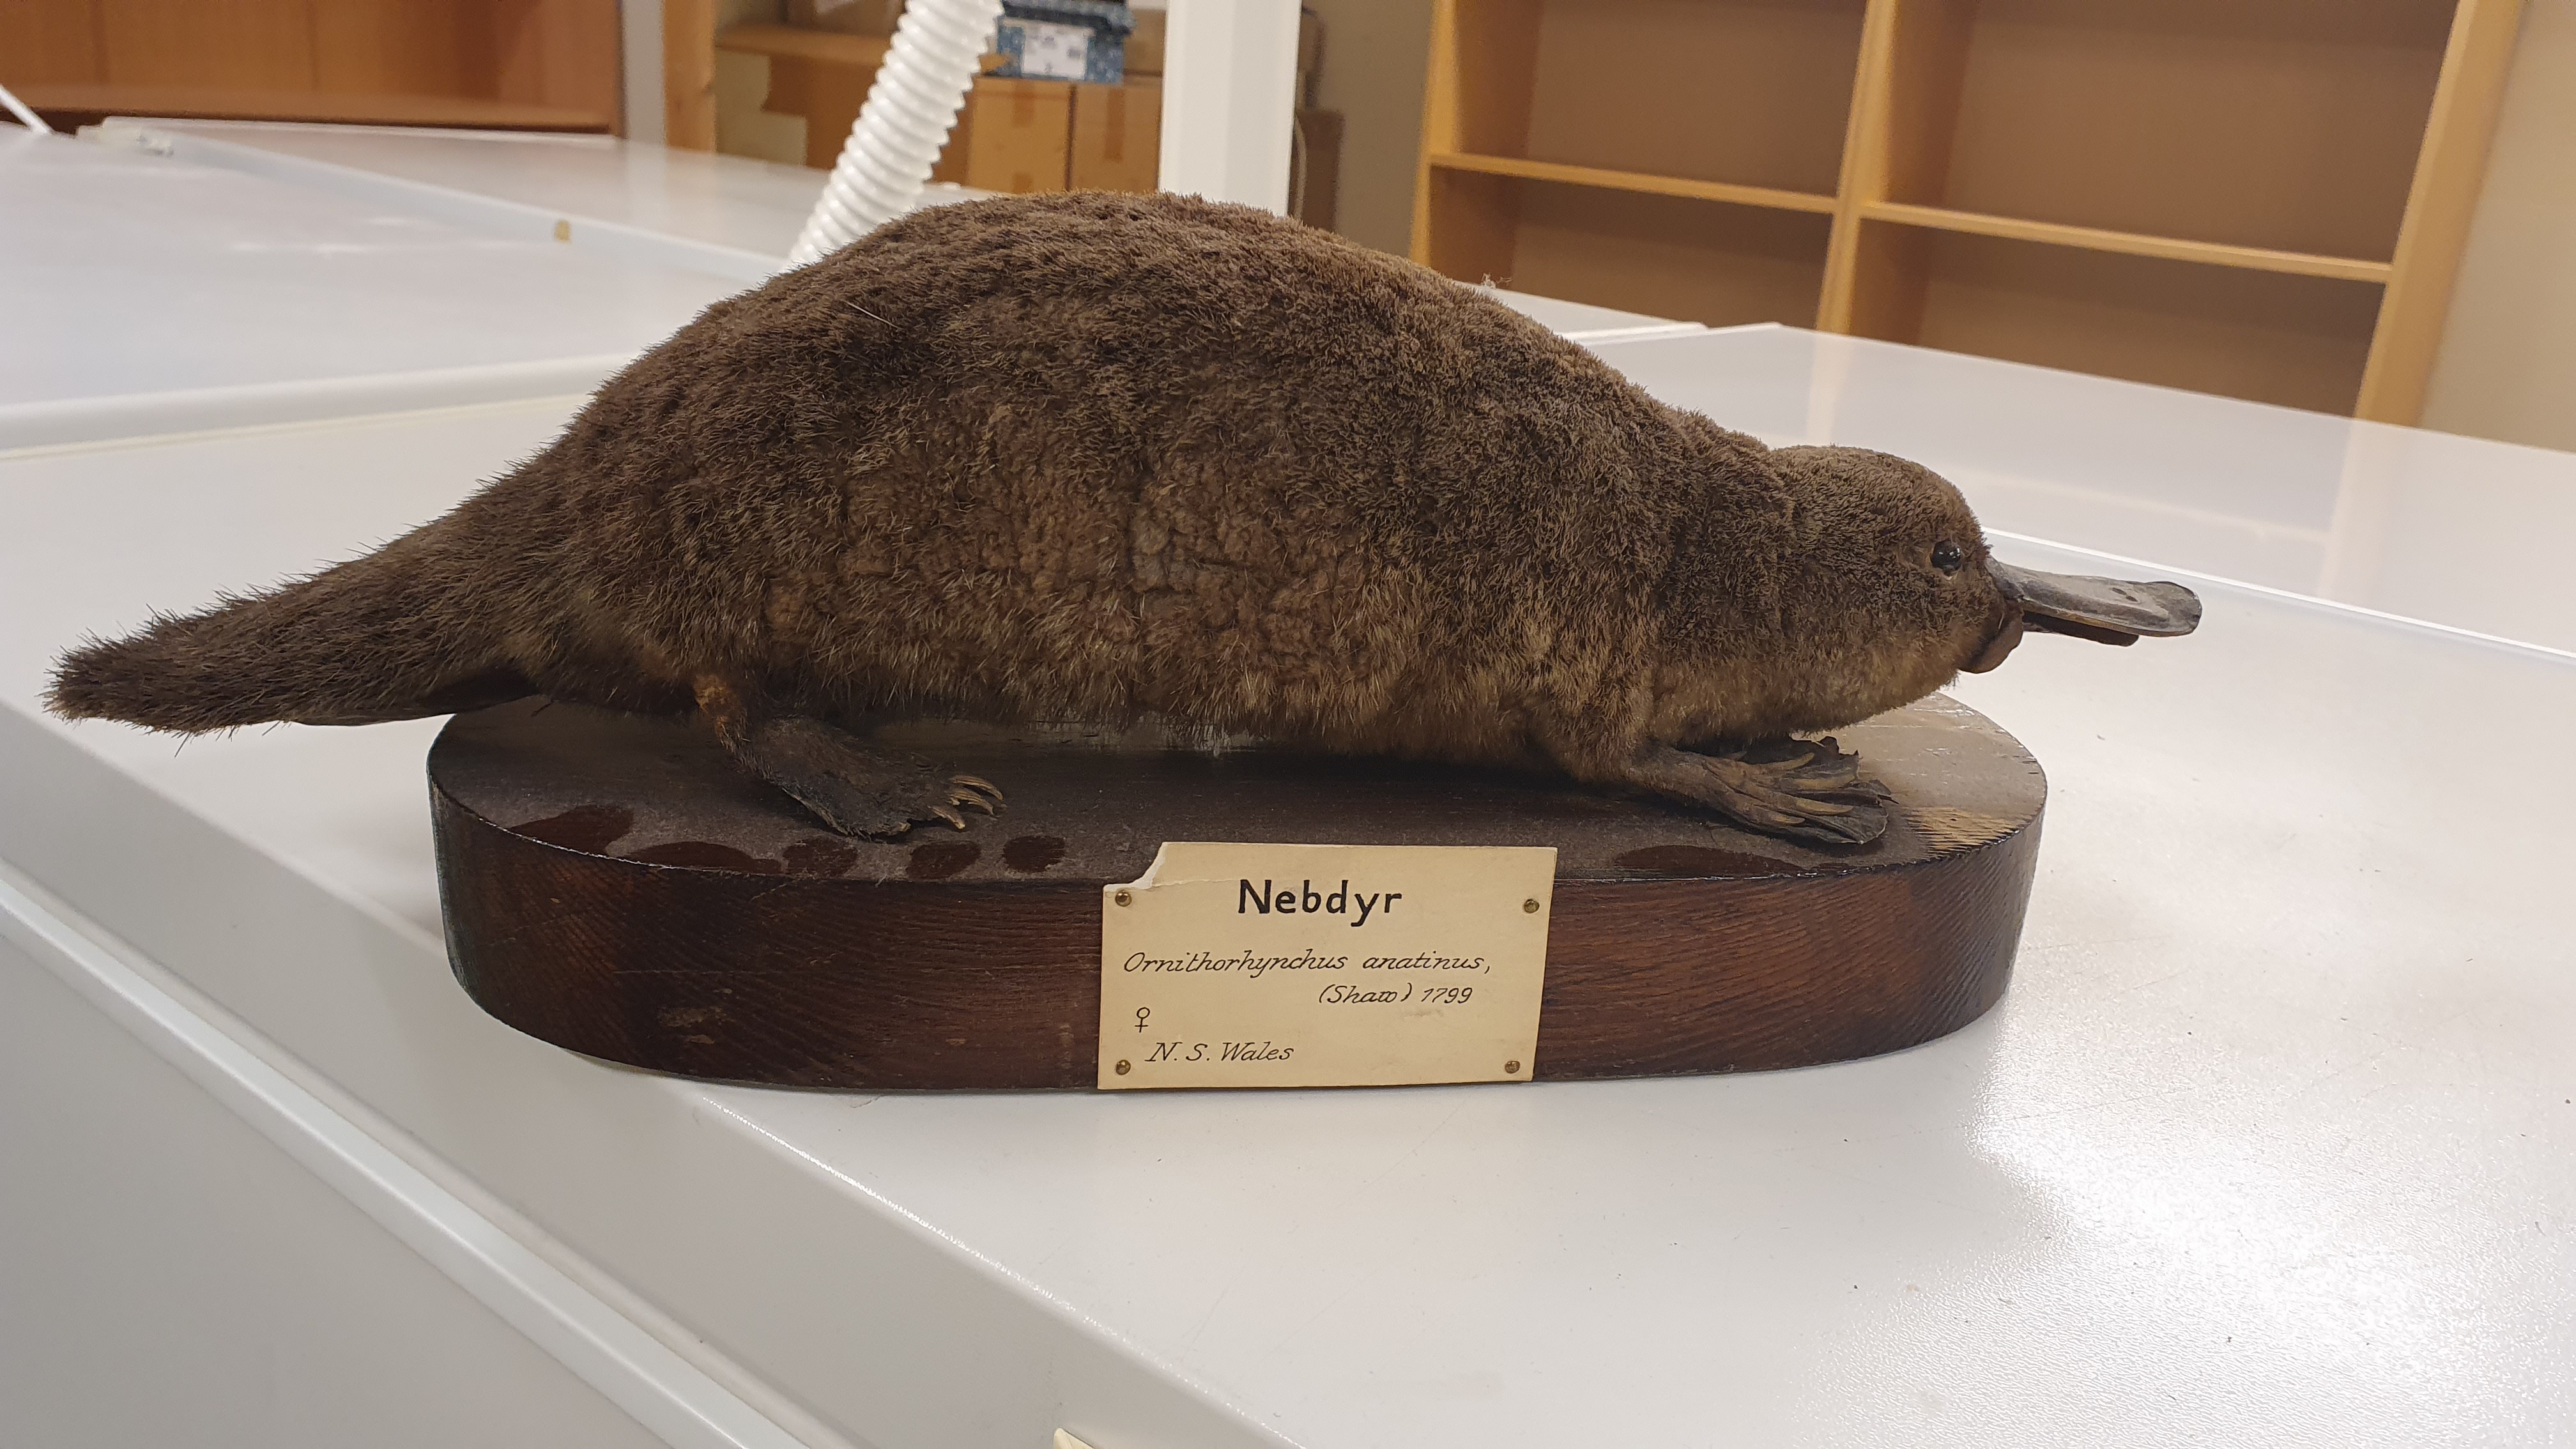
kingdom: Animalia
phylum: Chordata
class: Mammalia
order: Monotremata
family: Ornithorhynchidae
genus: Ornithorhynchus
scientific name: Ornithorhynchus anatinus
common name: Platypus
